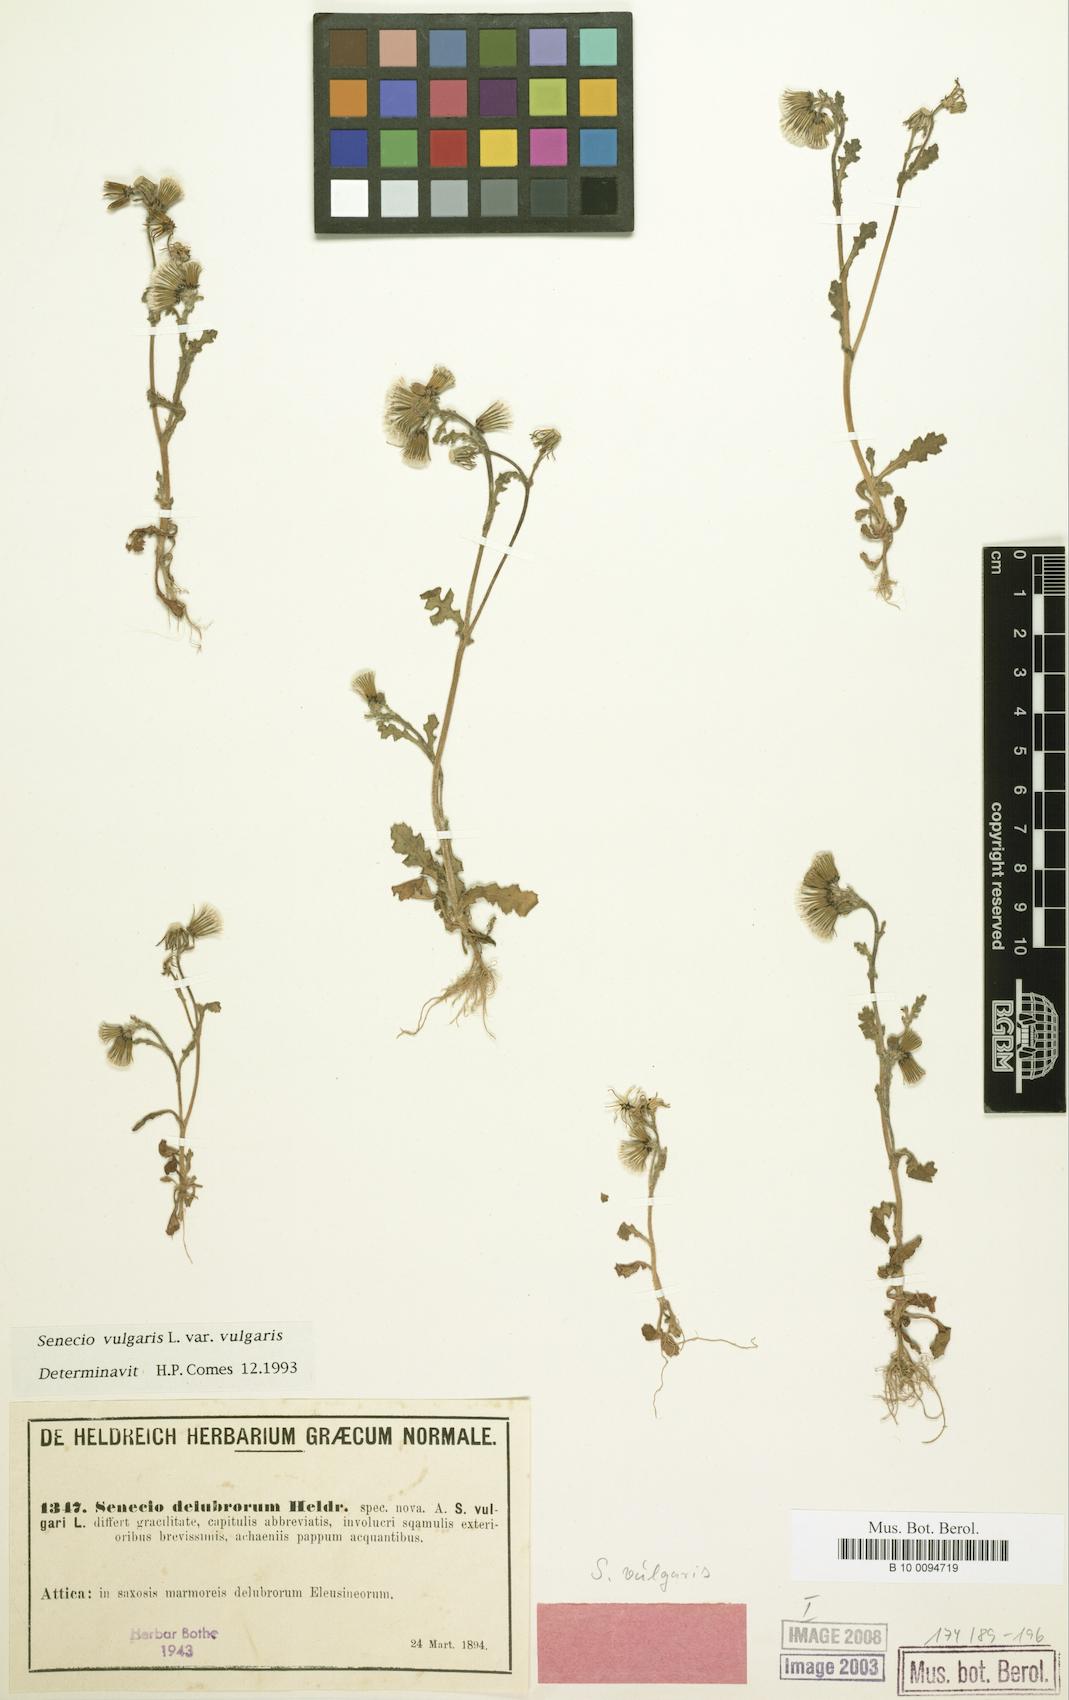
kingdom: Plantae
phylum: Tracheophyta
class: Magnoliopsida
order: Asterales
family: Asteraceae
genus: Senecio
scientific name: Senecio vulgaris
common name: Old-man-in-the-spring
